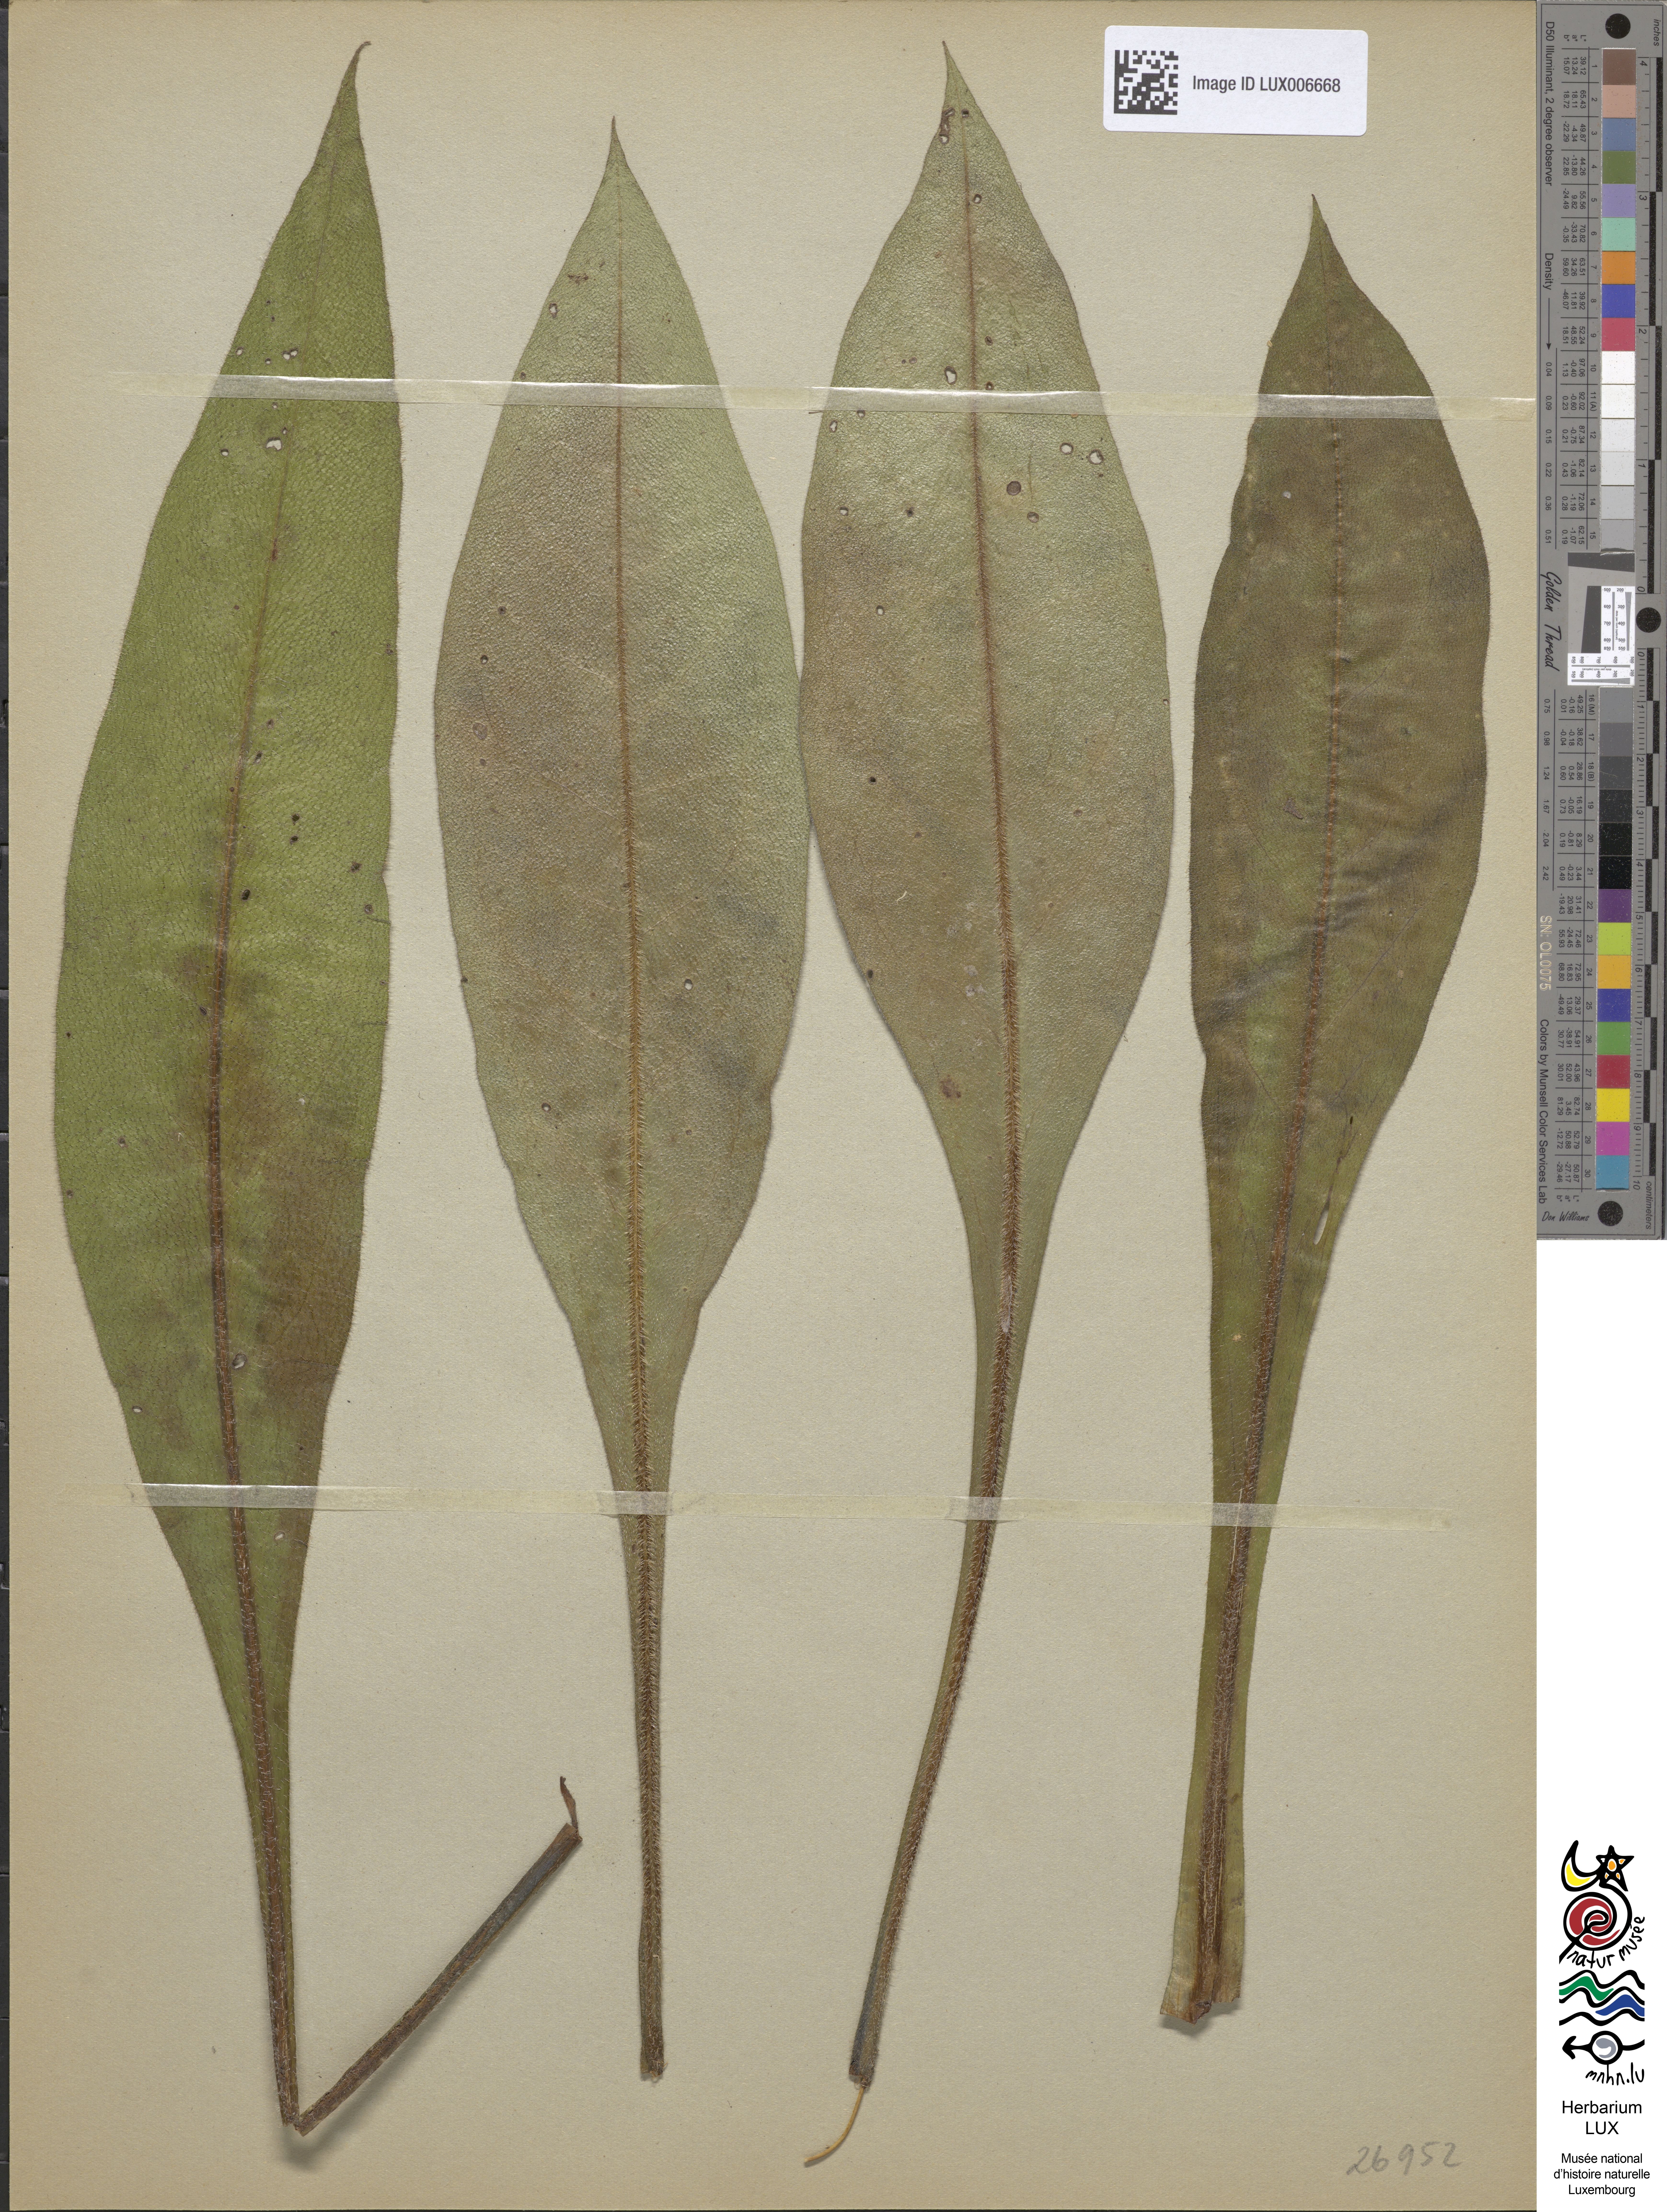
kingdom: Plantae
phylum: Tracheophyta
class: Magnoliopsida
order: Boraginales
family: Boraginaceae
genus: Pulmonaria
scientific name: Pulmonaria montana
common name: Mountain lungwort
